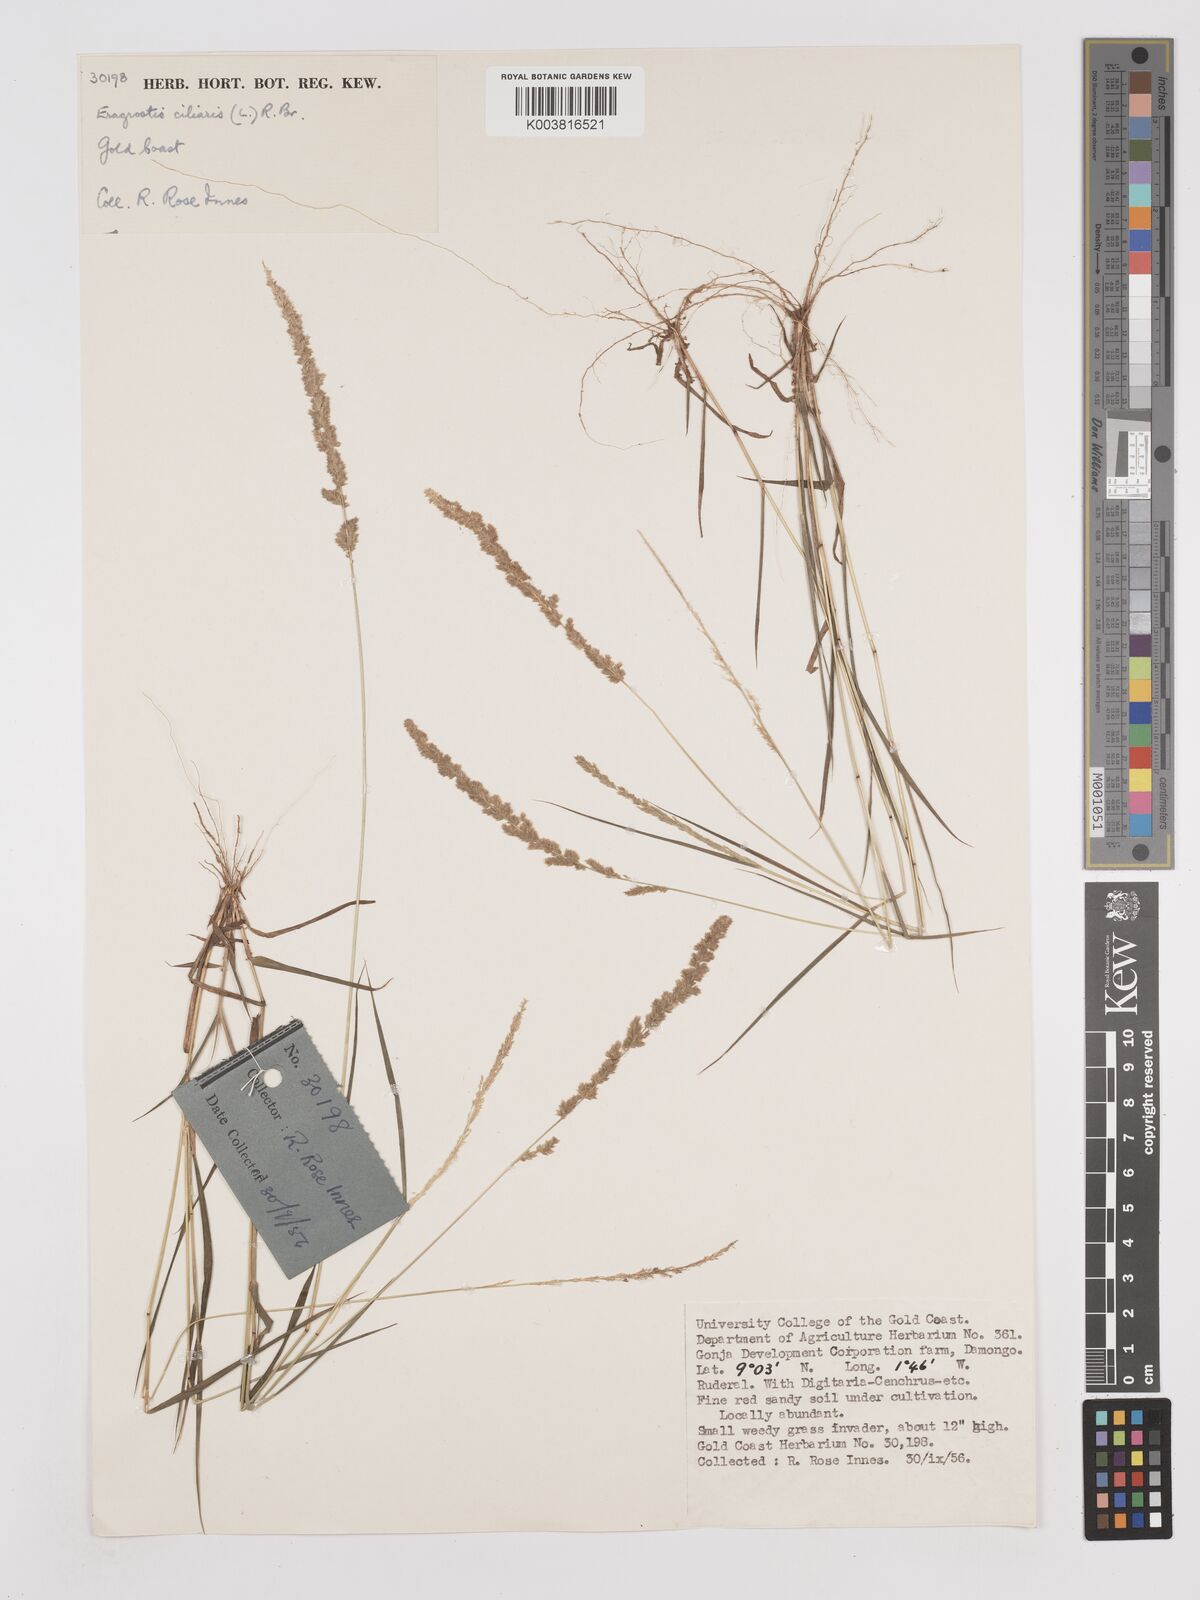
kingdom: Plantae
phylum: Tracheophyta
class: Liliopsida
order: Poales
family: Poaceae
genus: Eragrostis
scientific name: Eragrostis ciliaris
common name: Gophertail lovegrass
